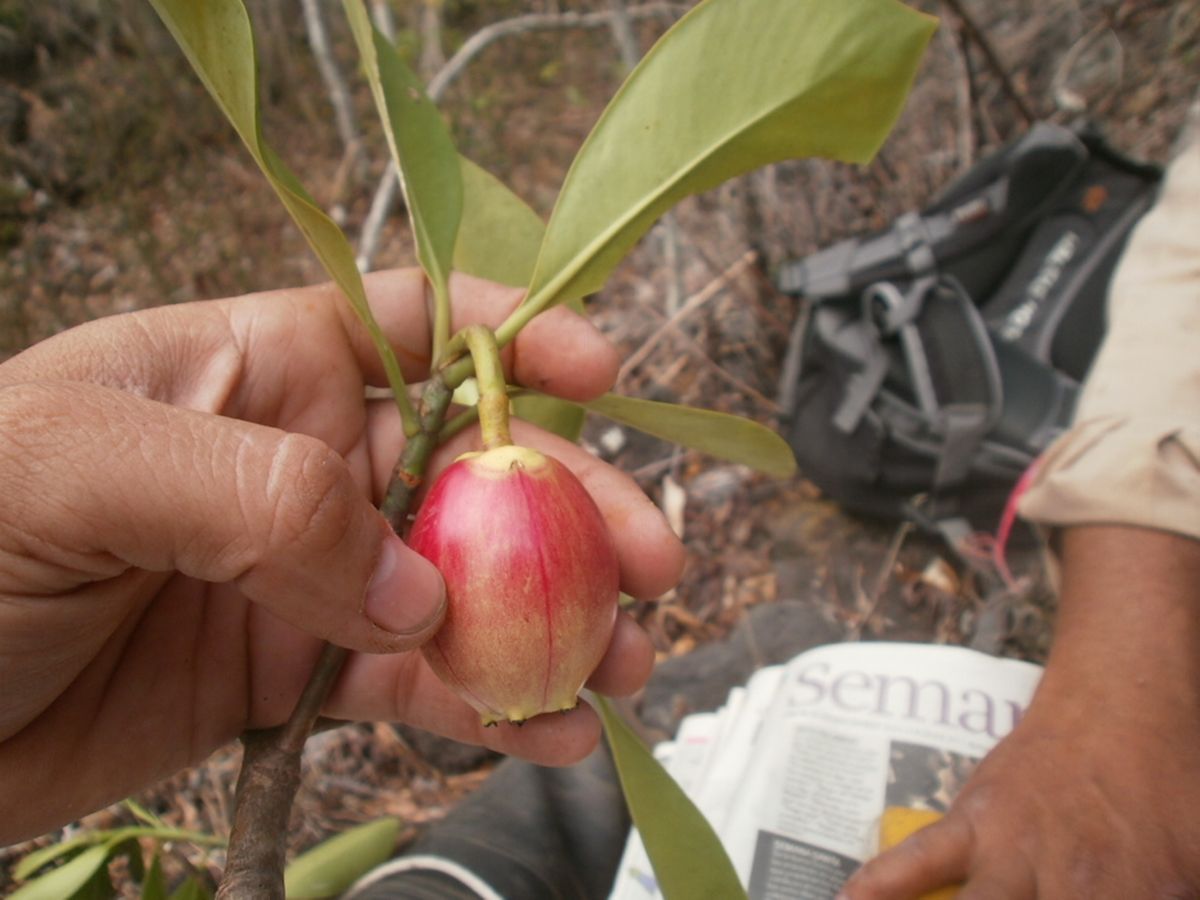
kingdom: Plantae
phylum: Tracheophyta
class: Magnoliopsida
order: Malpighiales
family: Clusiaceae
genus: Clusia
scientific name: Clusia
